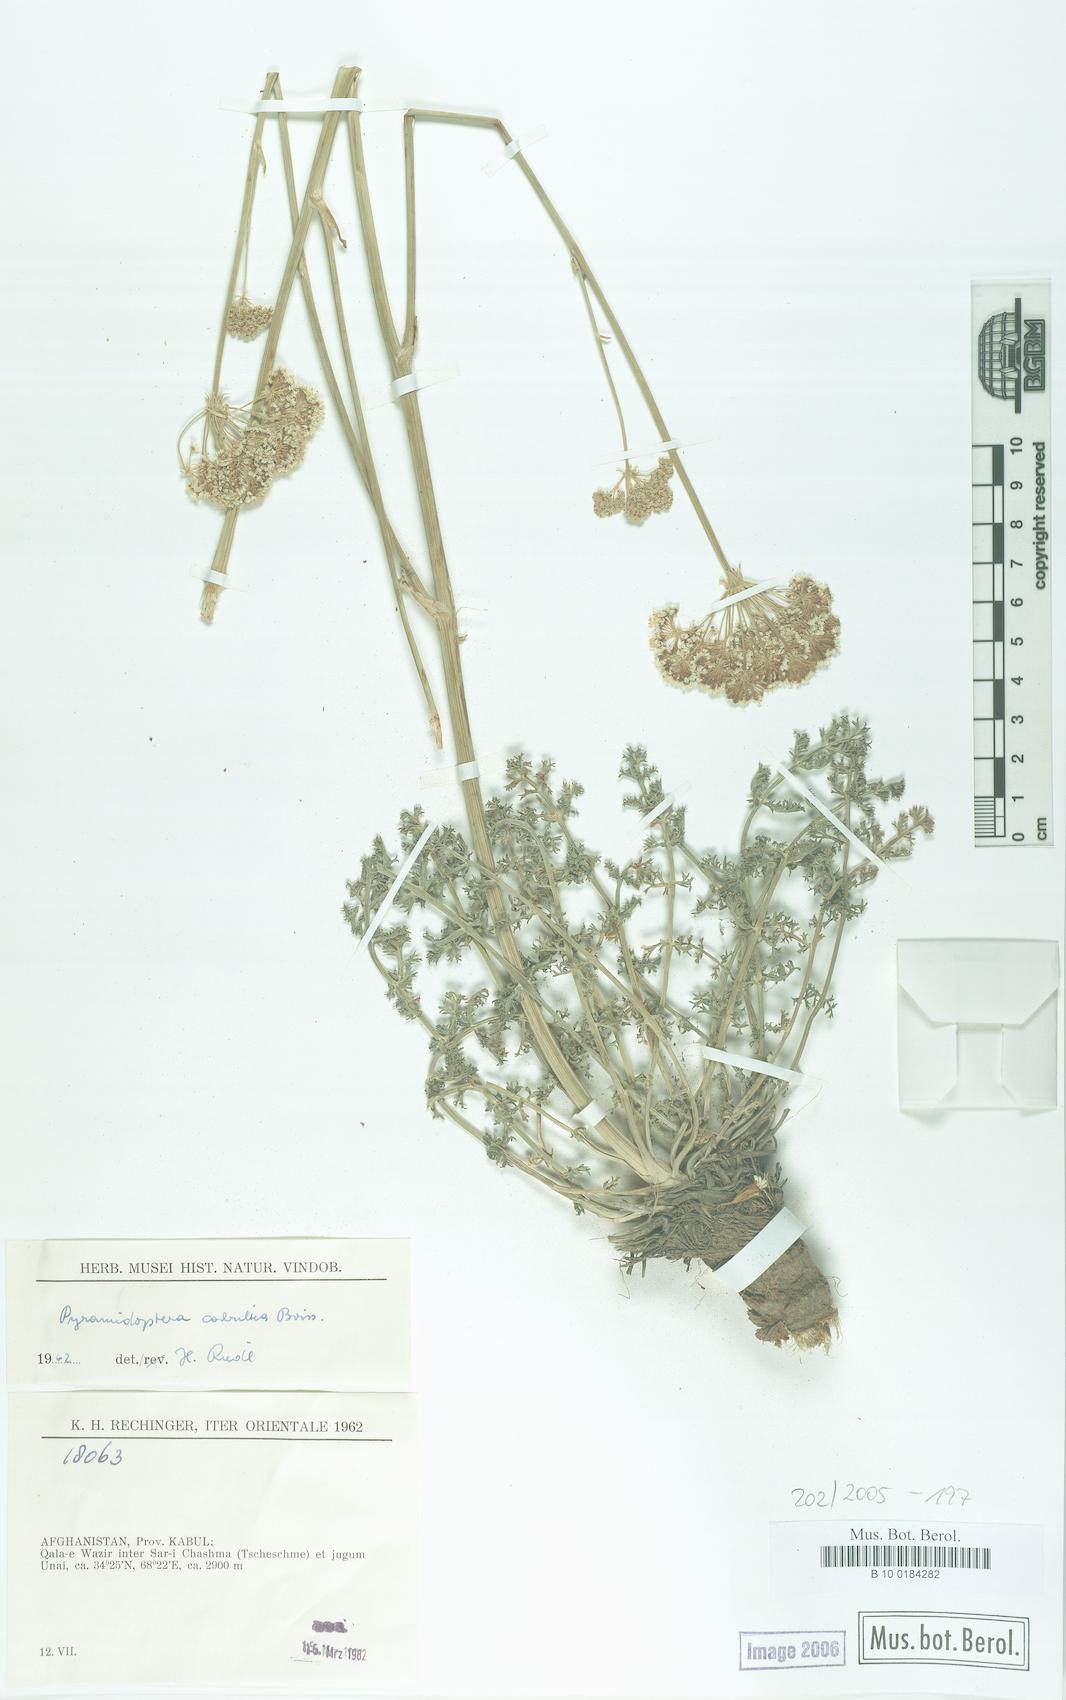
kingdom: Plantae
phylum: Tracheophyta
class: Magnoliopsida
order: Apiales
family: Apiaceae
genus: Pyramidoptera
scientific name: Pyramidoptera cabulica
